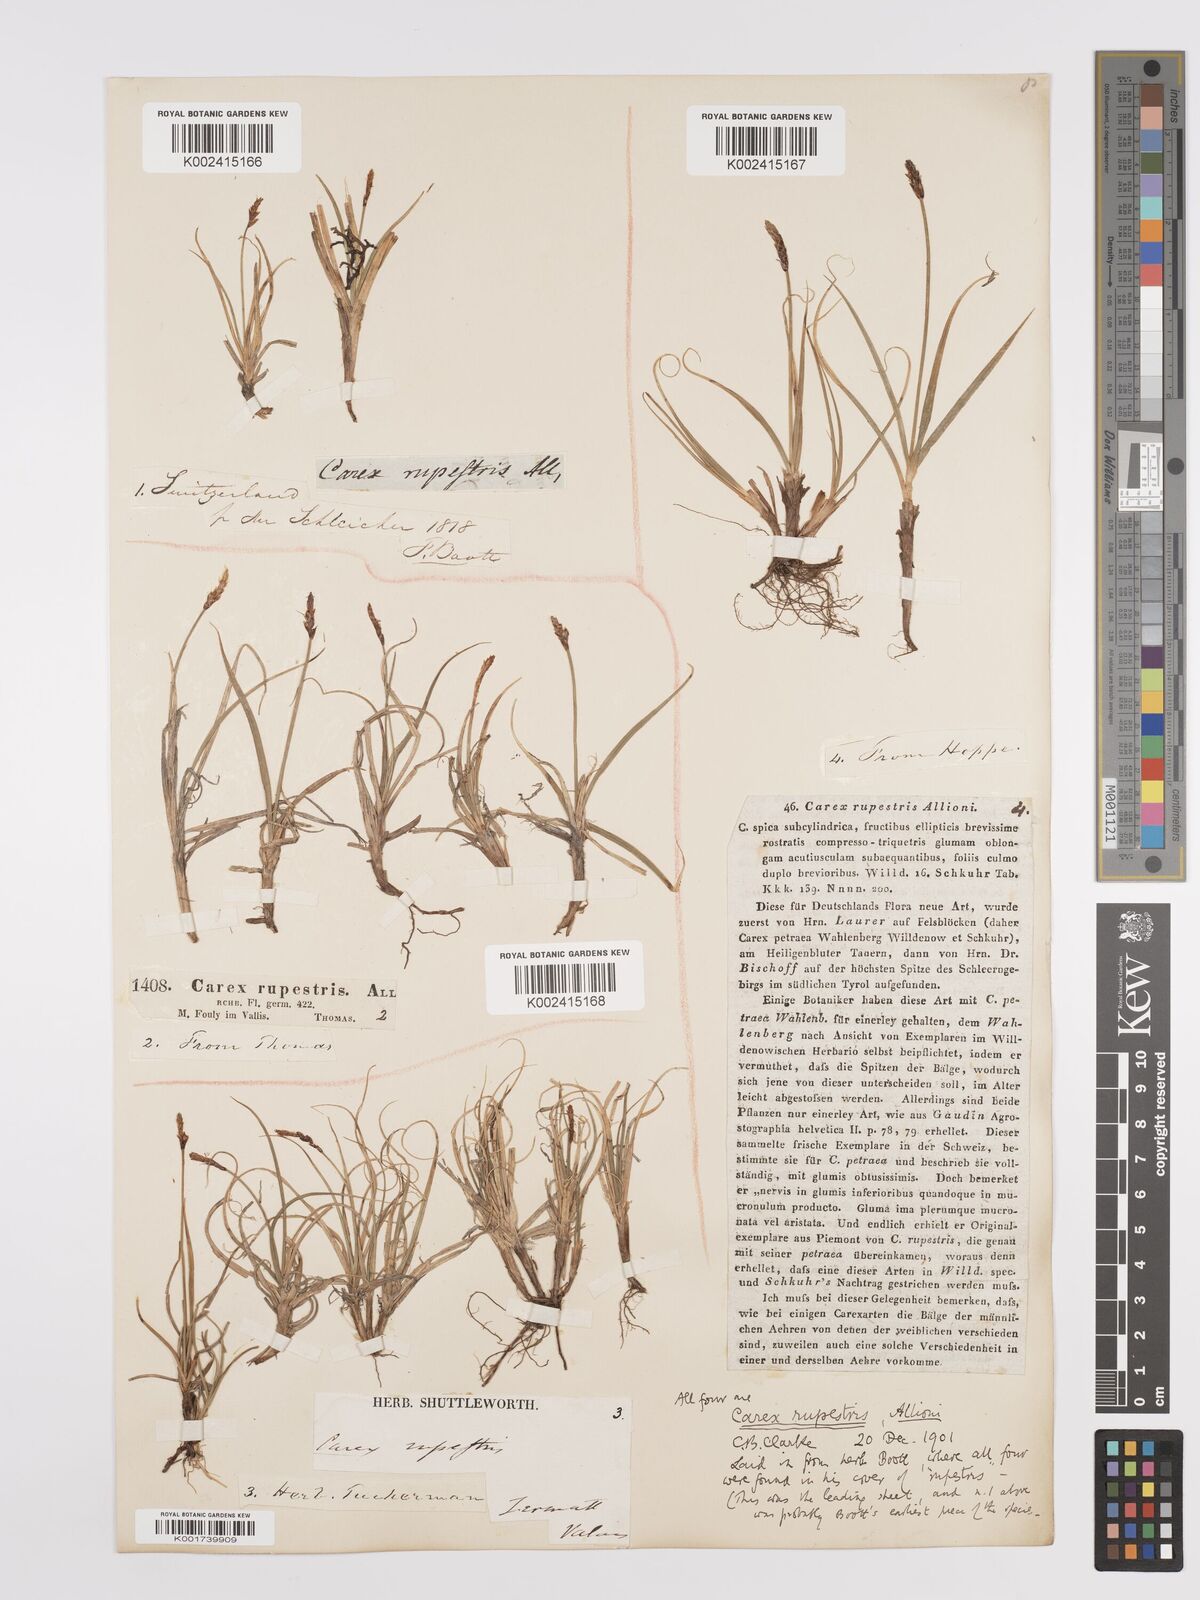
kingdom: Plantae
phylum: Tracheophyta
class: Liliopsida
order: Poales
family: Cyperaceae
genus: Carex
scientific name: Carex rupestris
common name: Rock sedge
